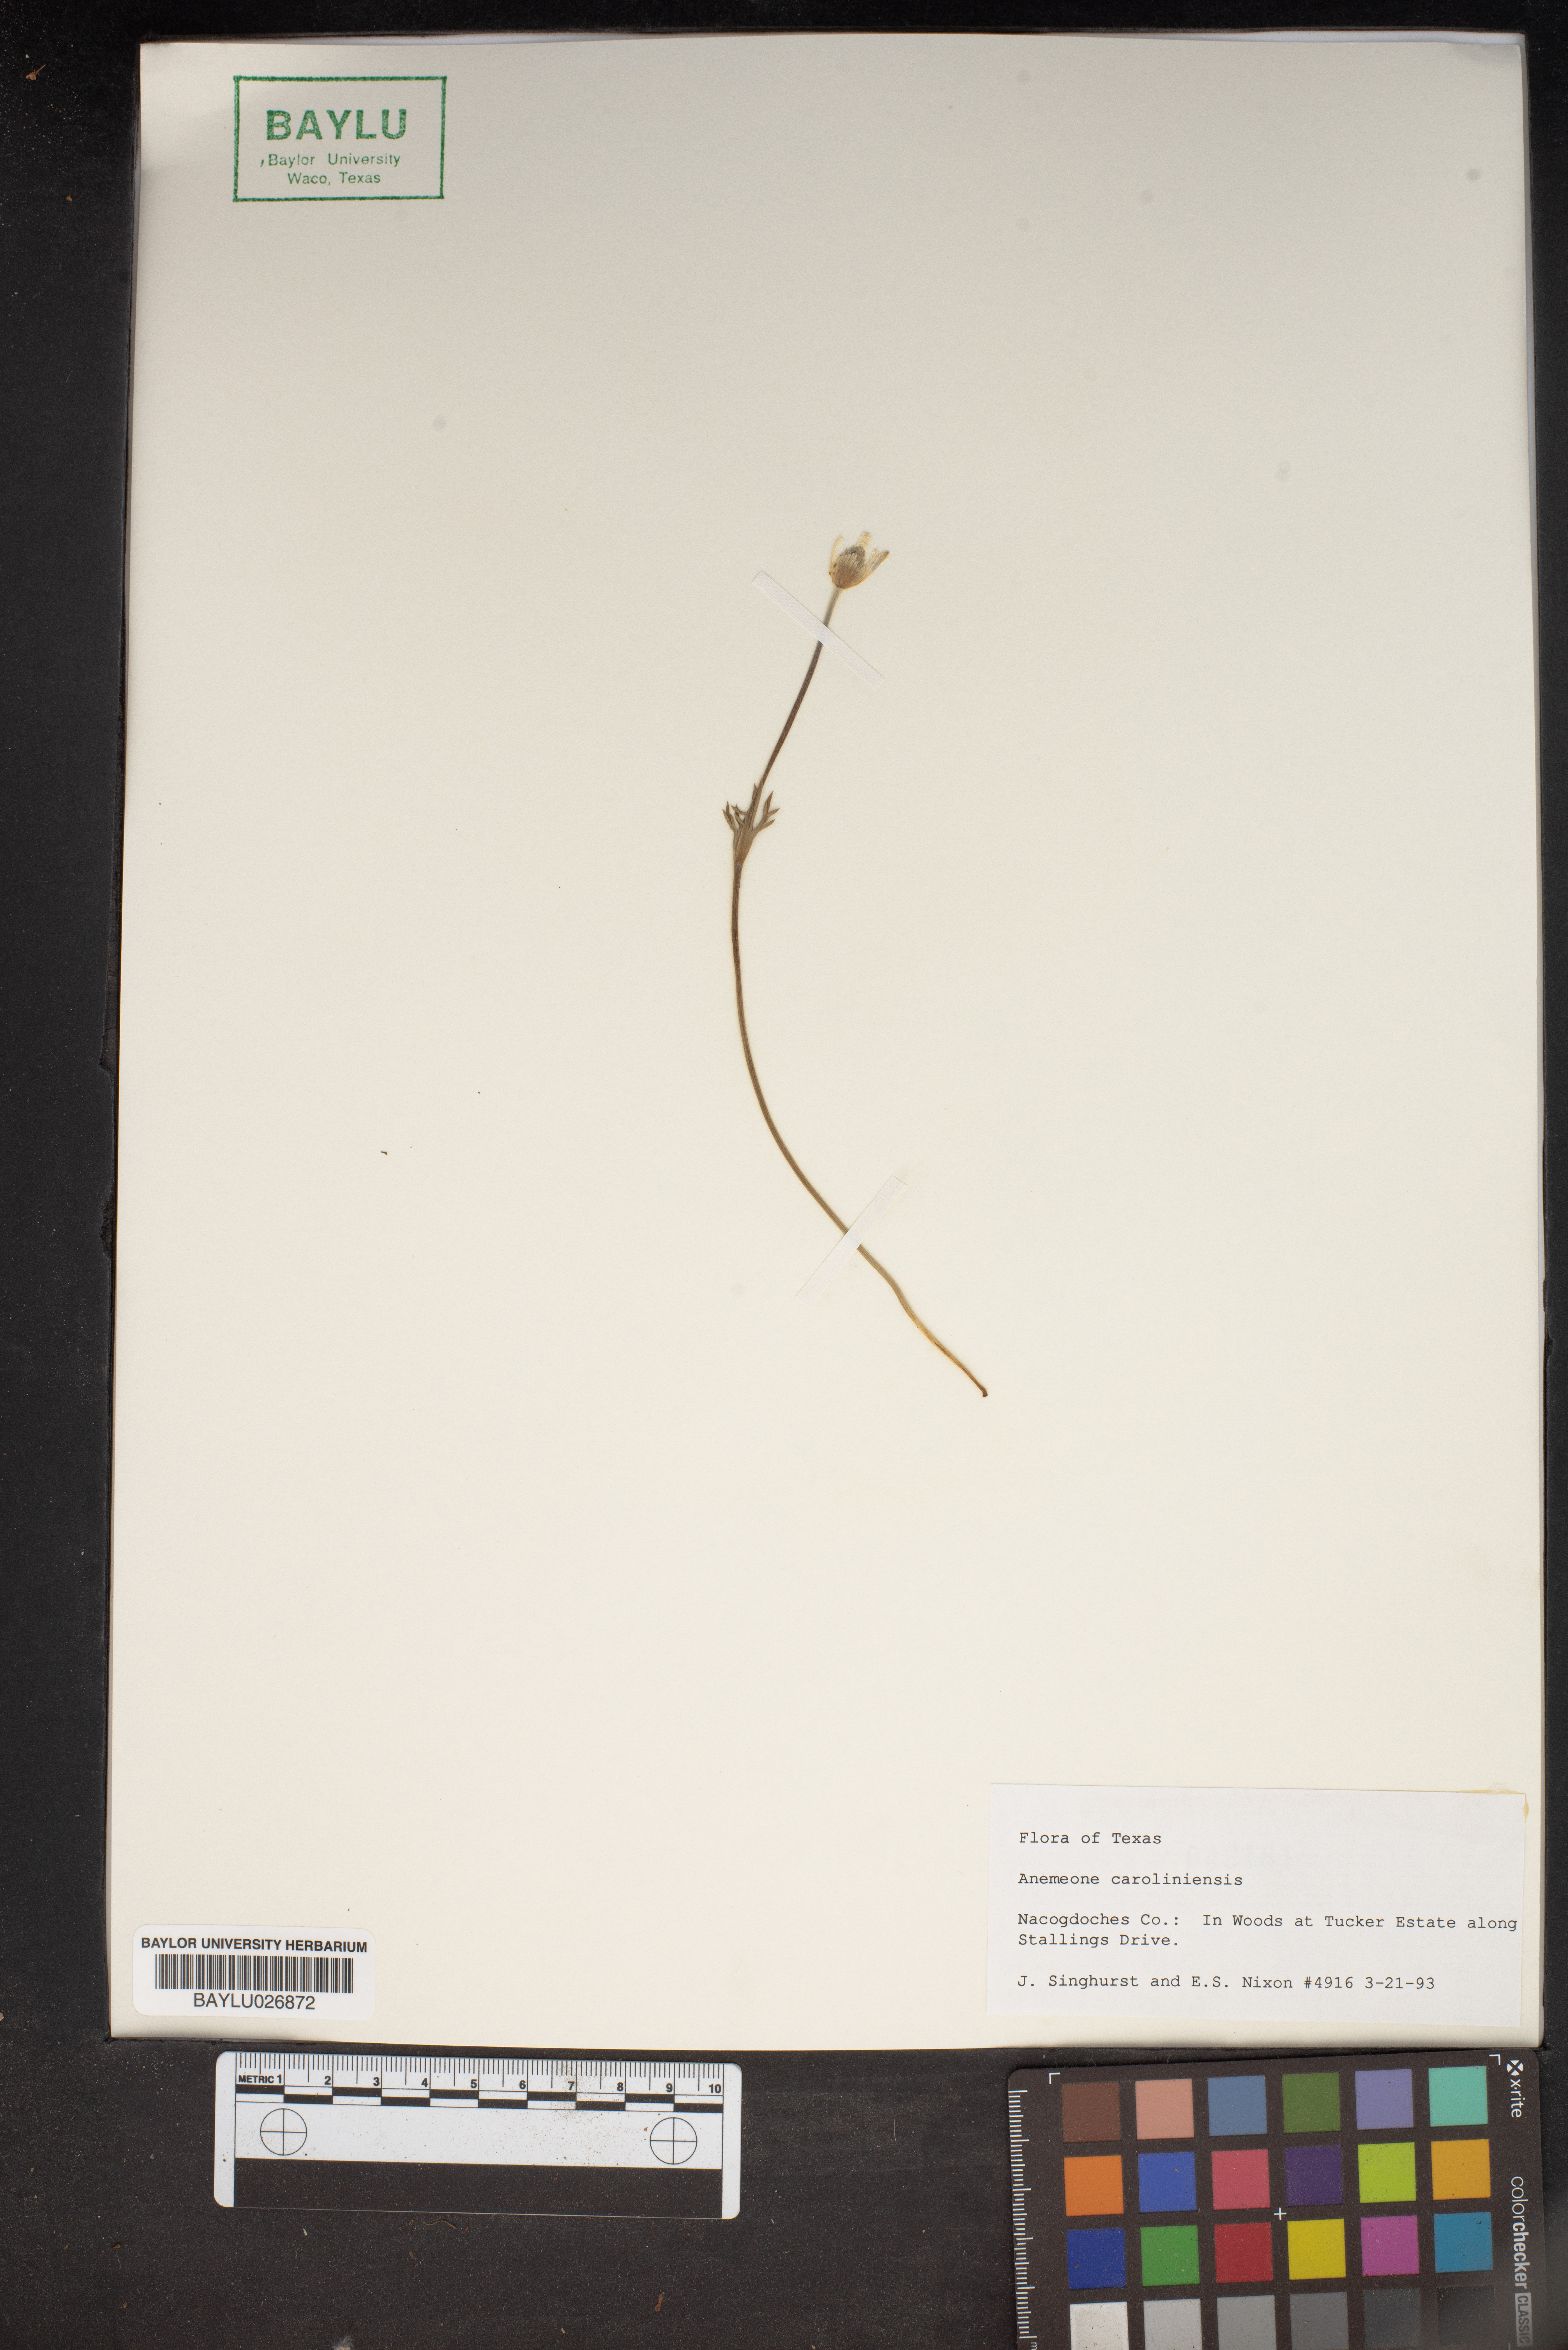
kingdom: Plantae
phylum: Tracheophyta
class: Magnoliopsida
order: Ranunculales
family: Ranunculaceae
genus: Anemone
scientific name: Anemone caroliniana
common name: Carolina anemone
